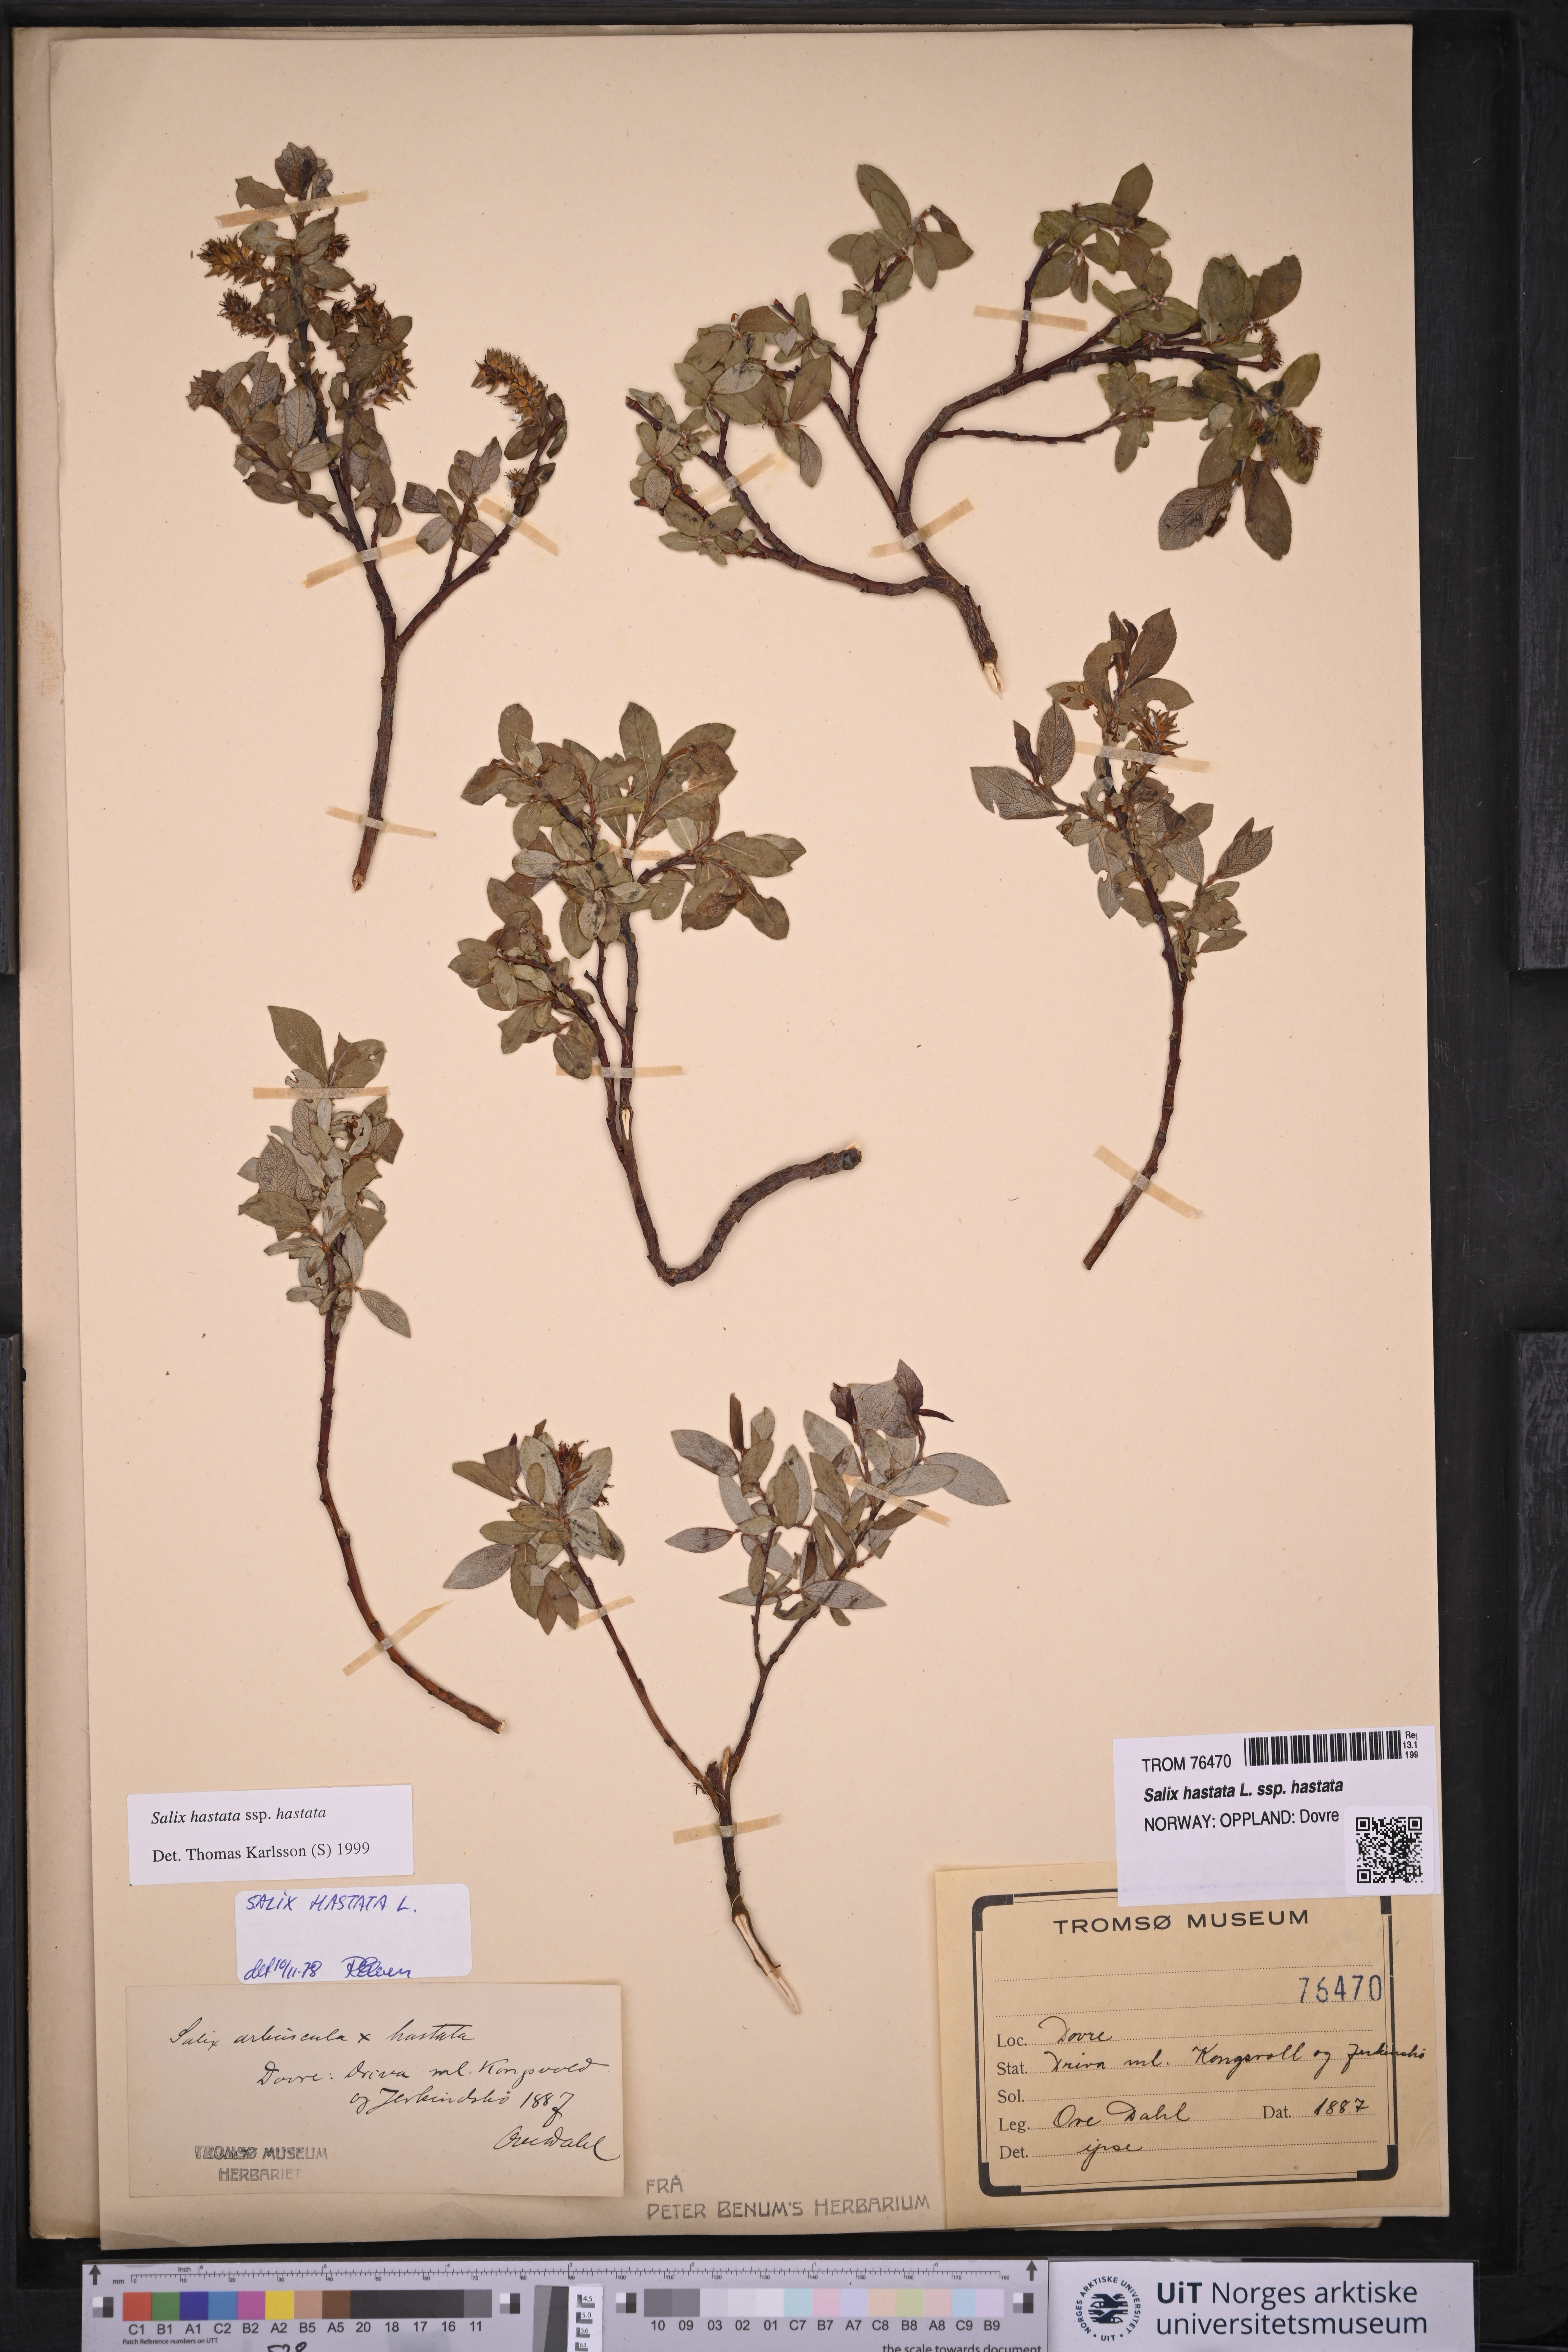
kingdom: Plantae
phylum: Tracheophyta
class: Magnoliopsida
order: Malpighiales
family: Salicaceae
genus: Salix
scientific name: Salix hastata
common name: Halberd willow
